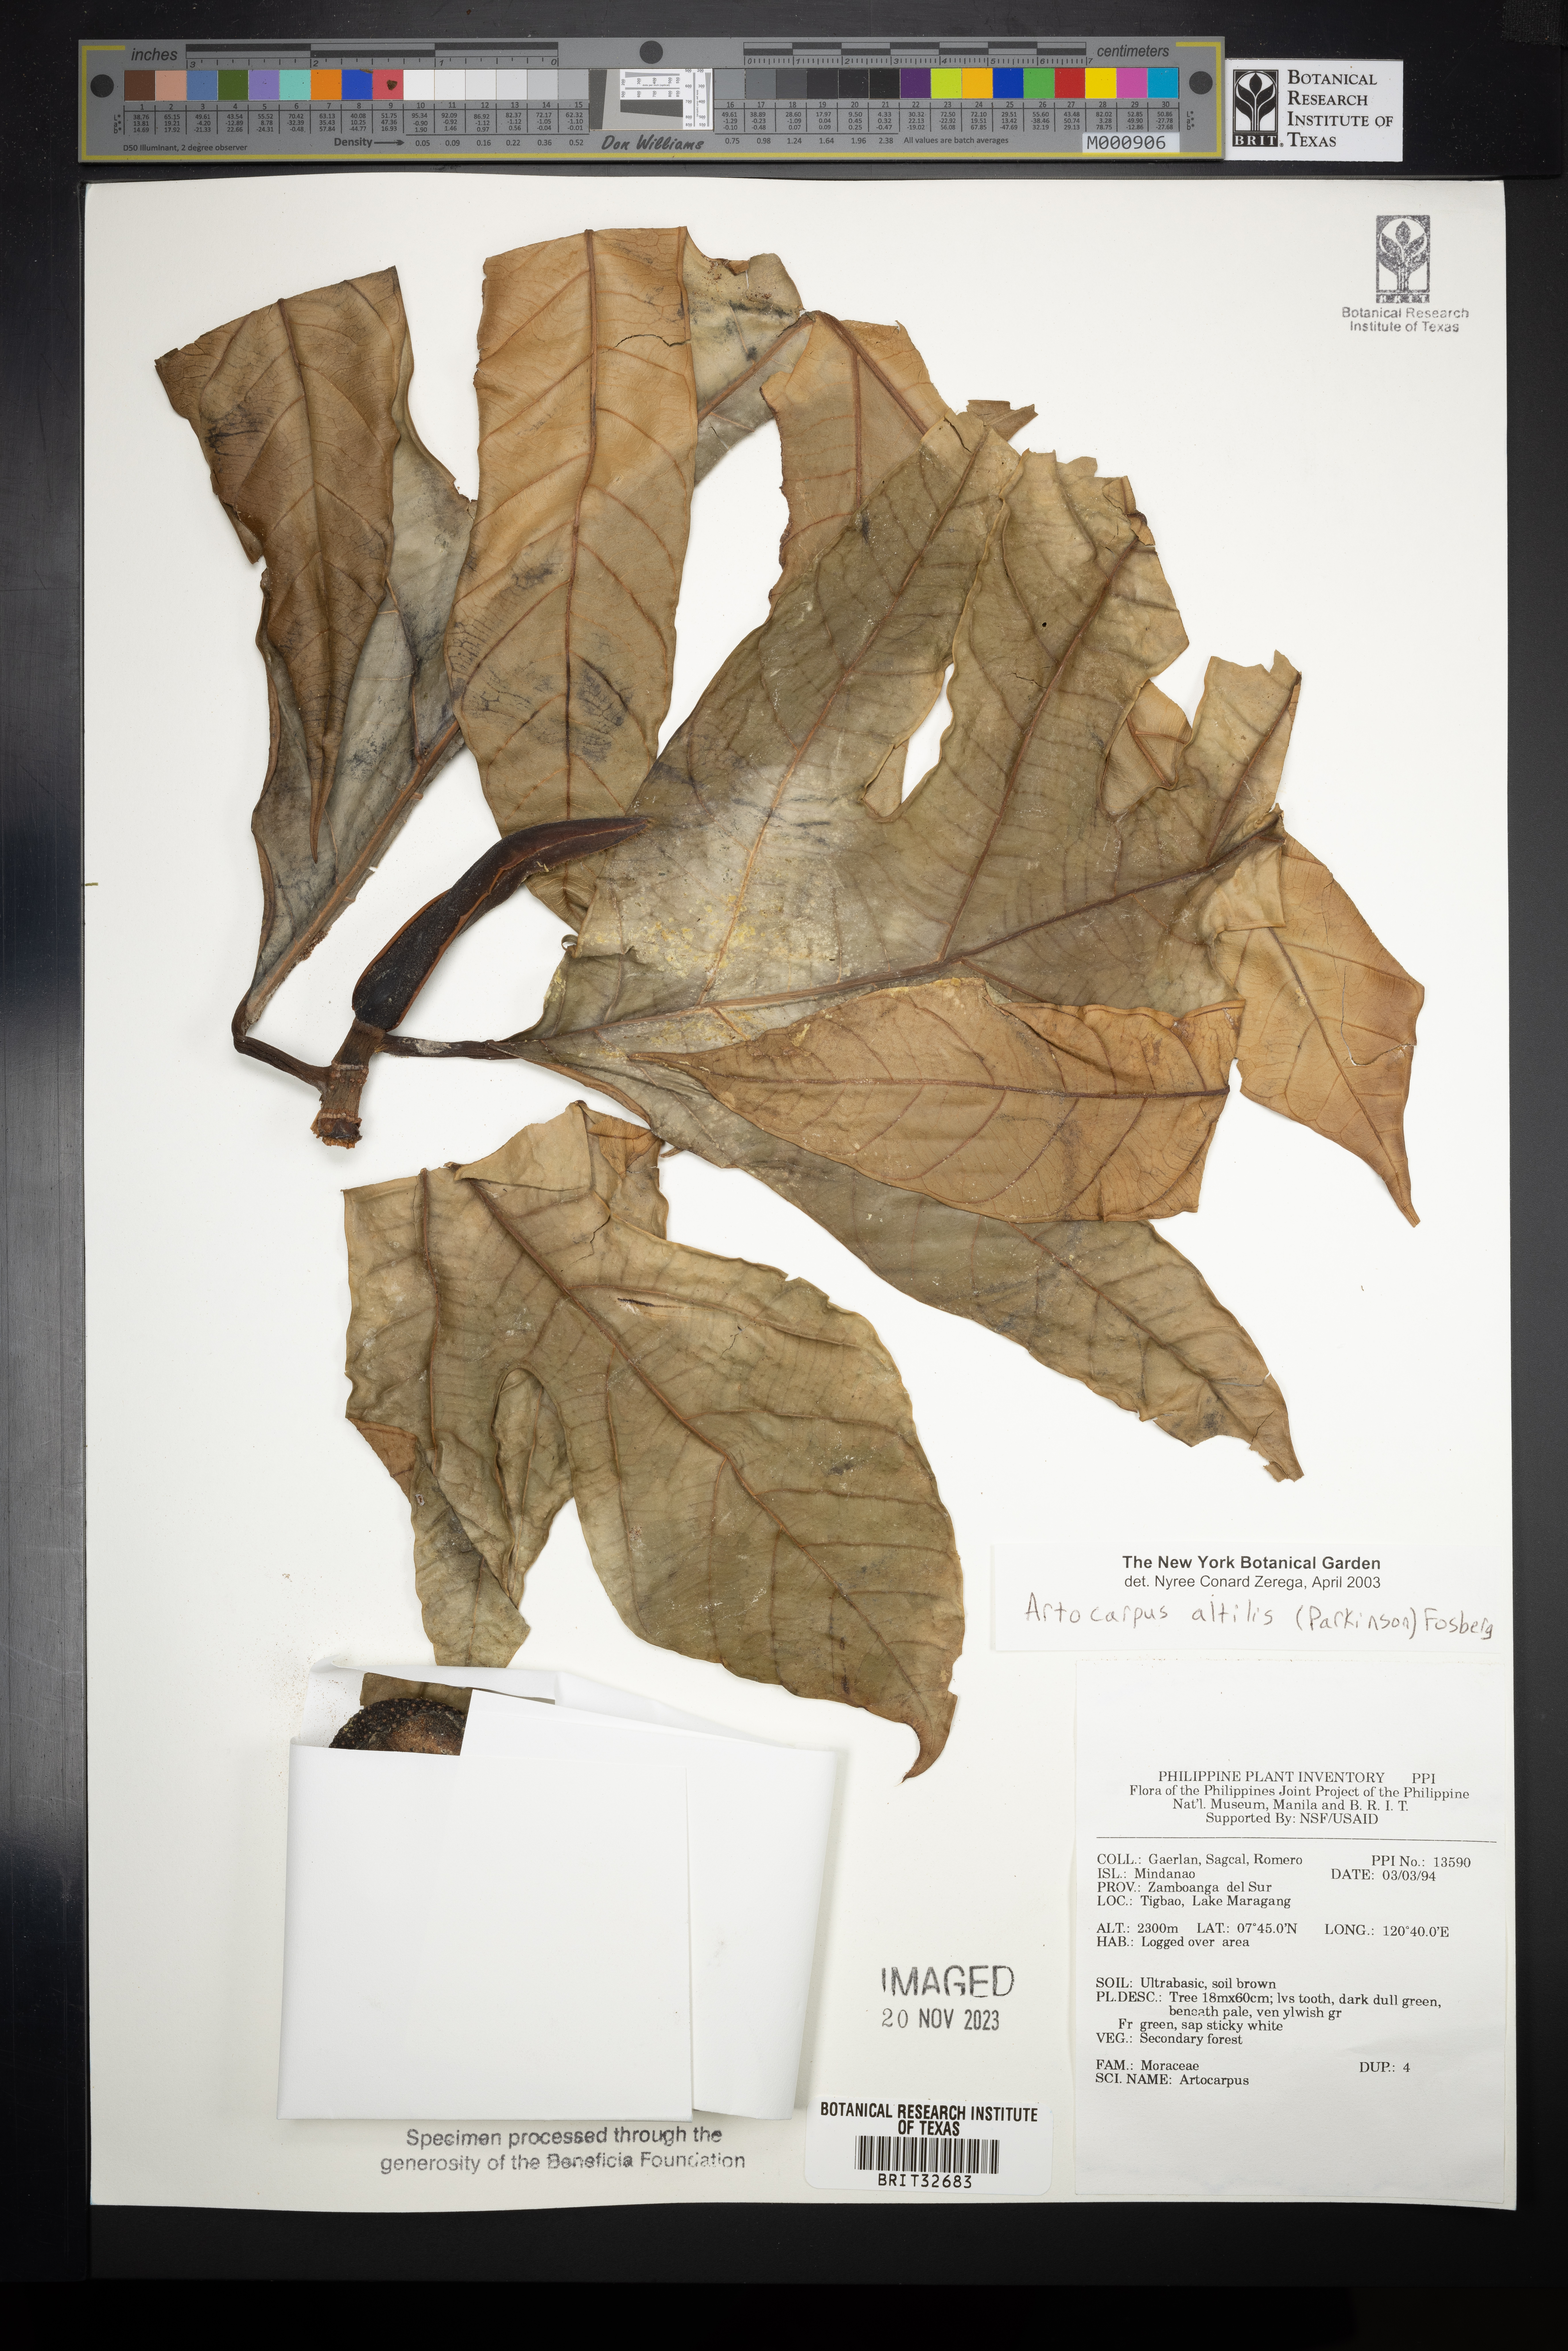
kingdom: Plantae
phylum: Tracheophyta
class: Magnoliopsida
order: Rosales
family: Moraceae
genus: Artocarpus
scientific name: Artocarpus altilis
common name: Breadfruit
